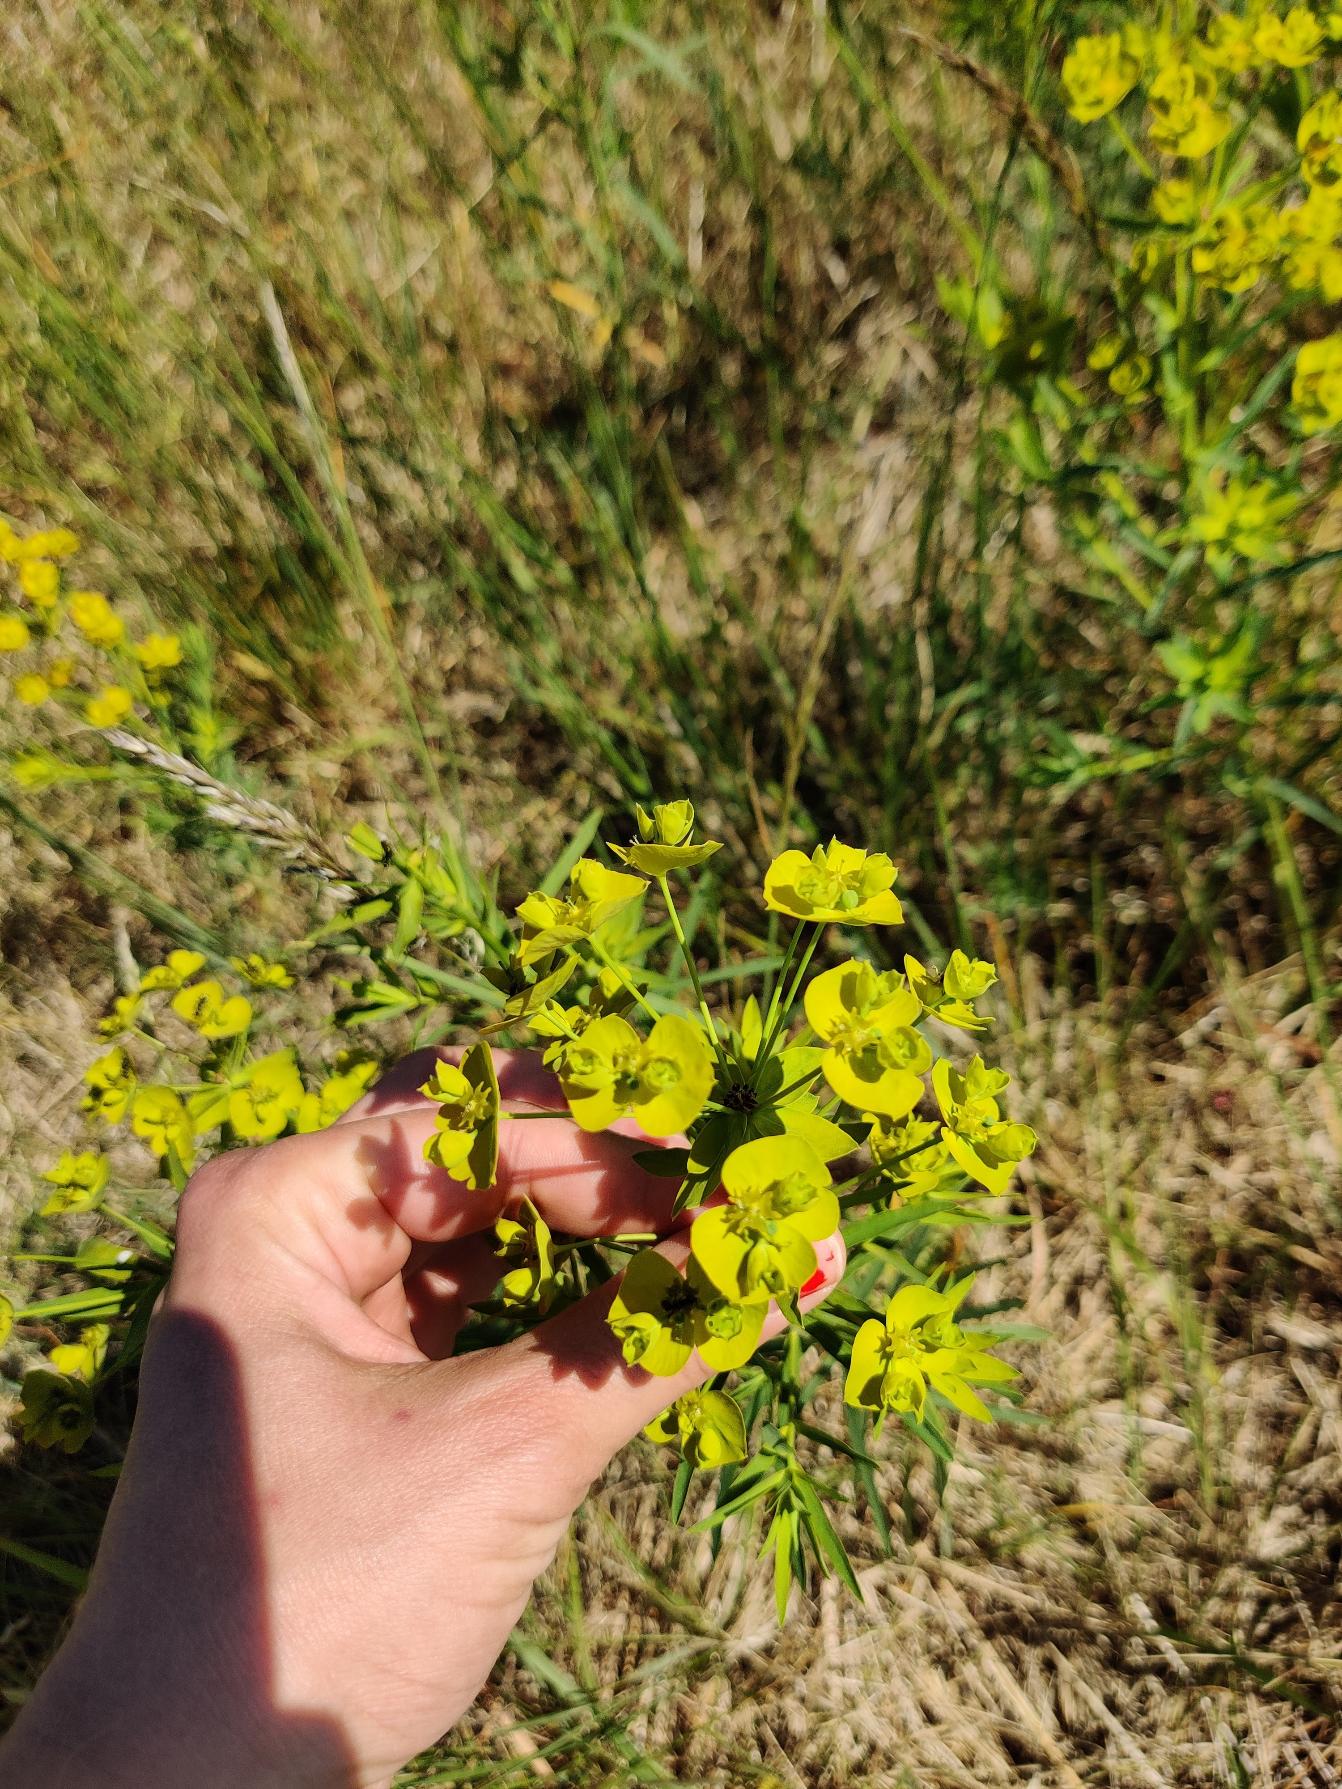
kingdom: Plantae
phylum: Tracheophyta
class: Magnoliopsida
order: Malpighiales
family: Euphorbiaceae
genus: Euphorbia
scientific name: Euphorbia esula
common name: Langbladet vortemælk (underart)
